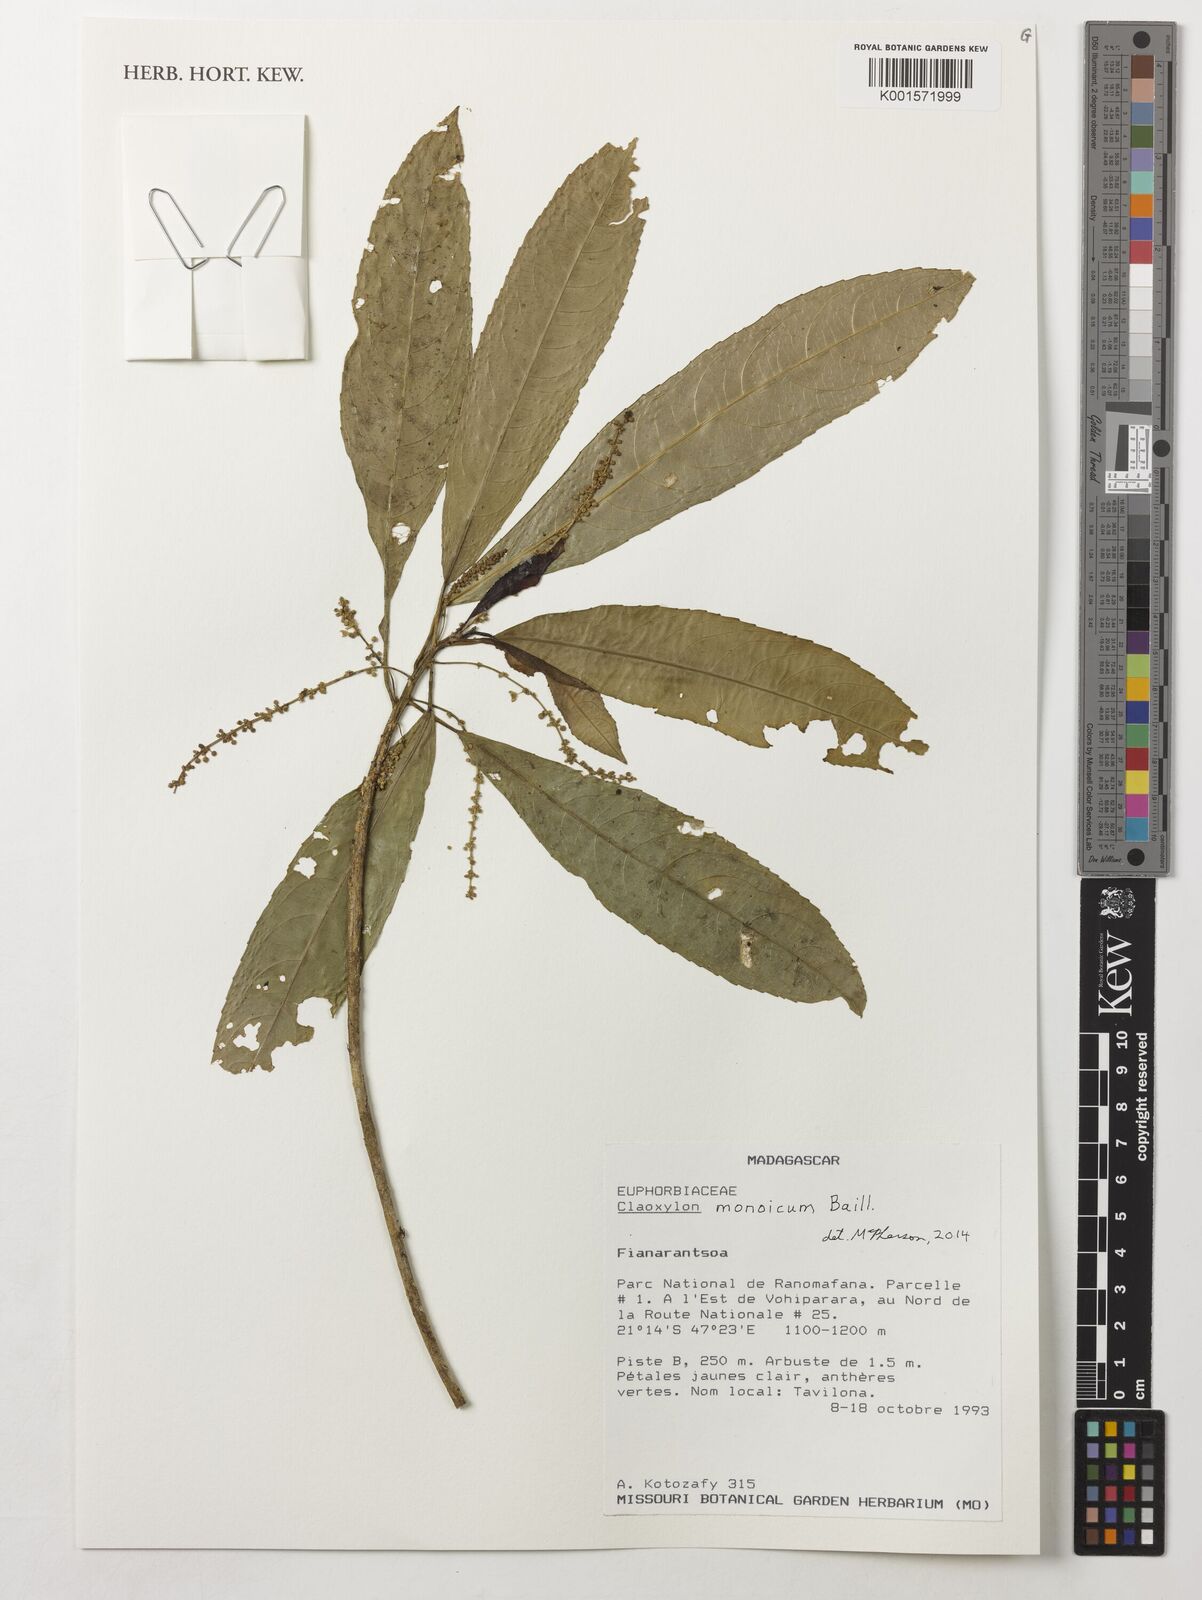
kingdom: Plantae
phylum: Tracheophyta
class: Magnoliopsida
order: Malpighiales
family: Euphorbiaceae
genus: Claoxylon
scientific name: Claoxylon monoicum
